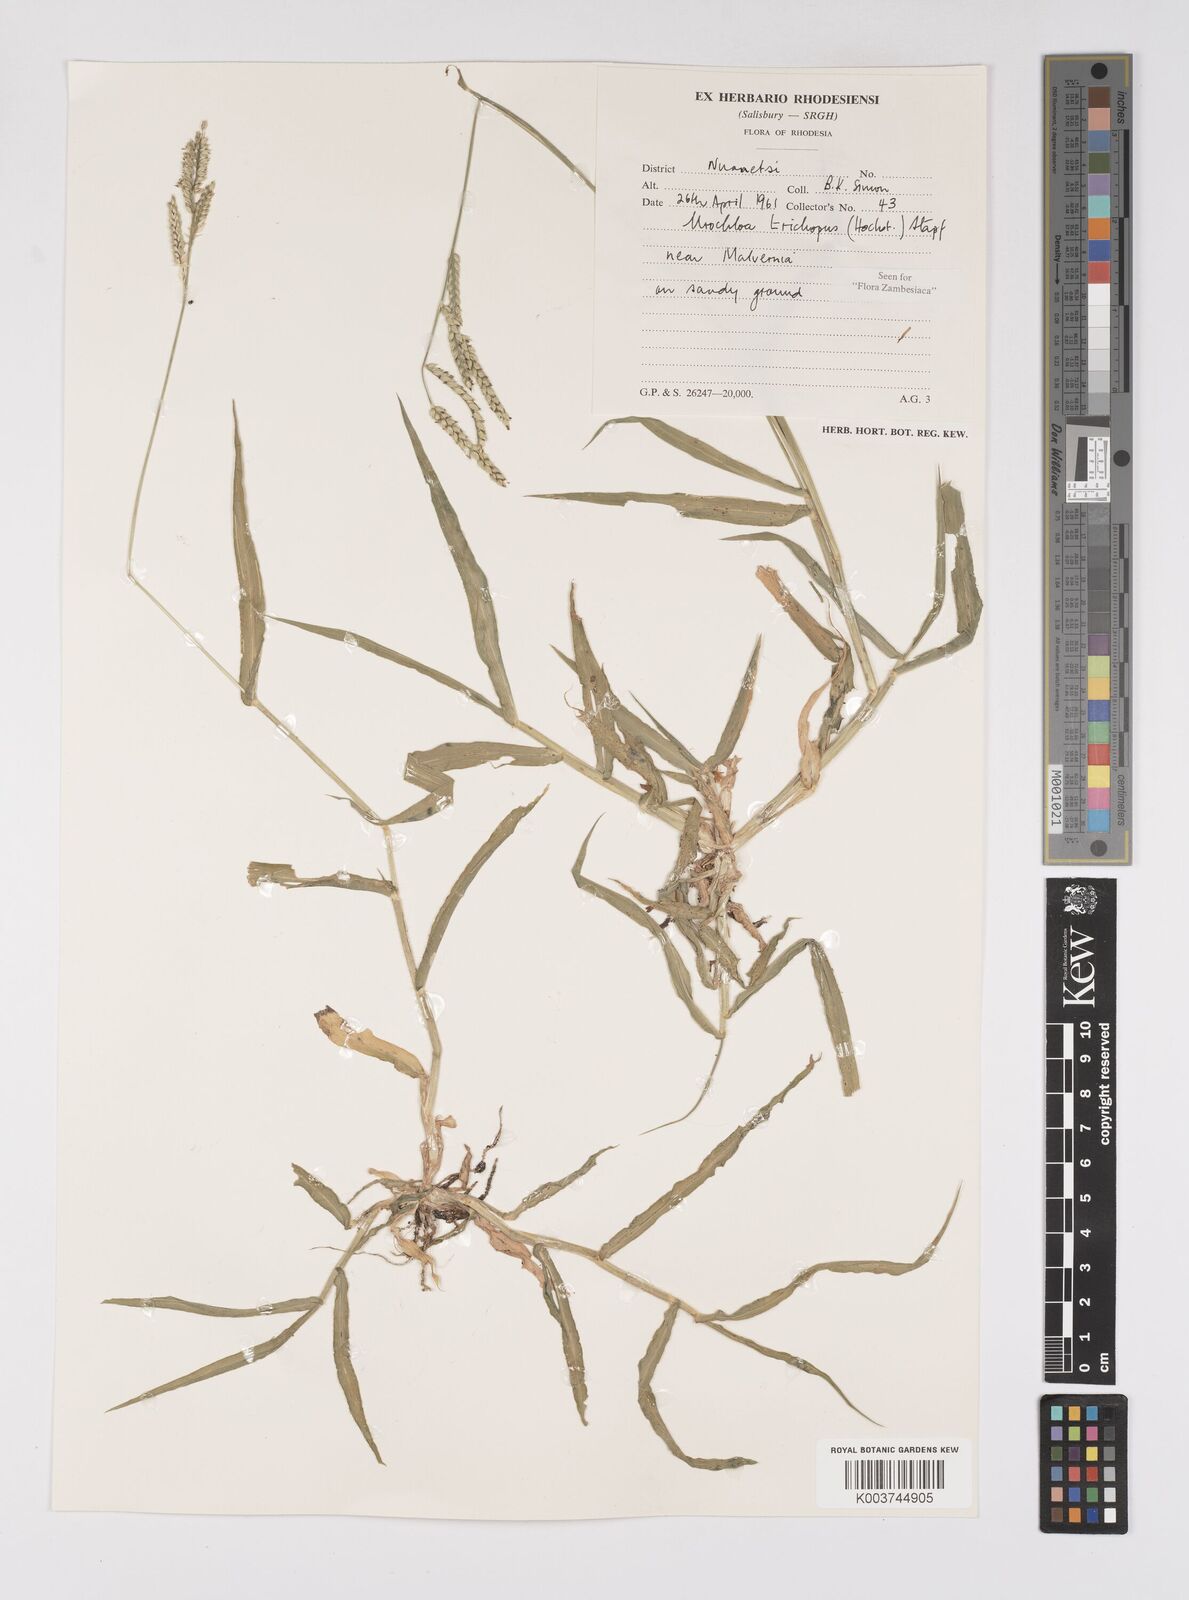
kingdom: Plantae
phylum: Tracheophyta
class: Liliopsida
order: Poales
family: Poaceae
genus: Urochloa
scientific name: Urochloa trichopus
